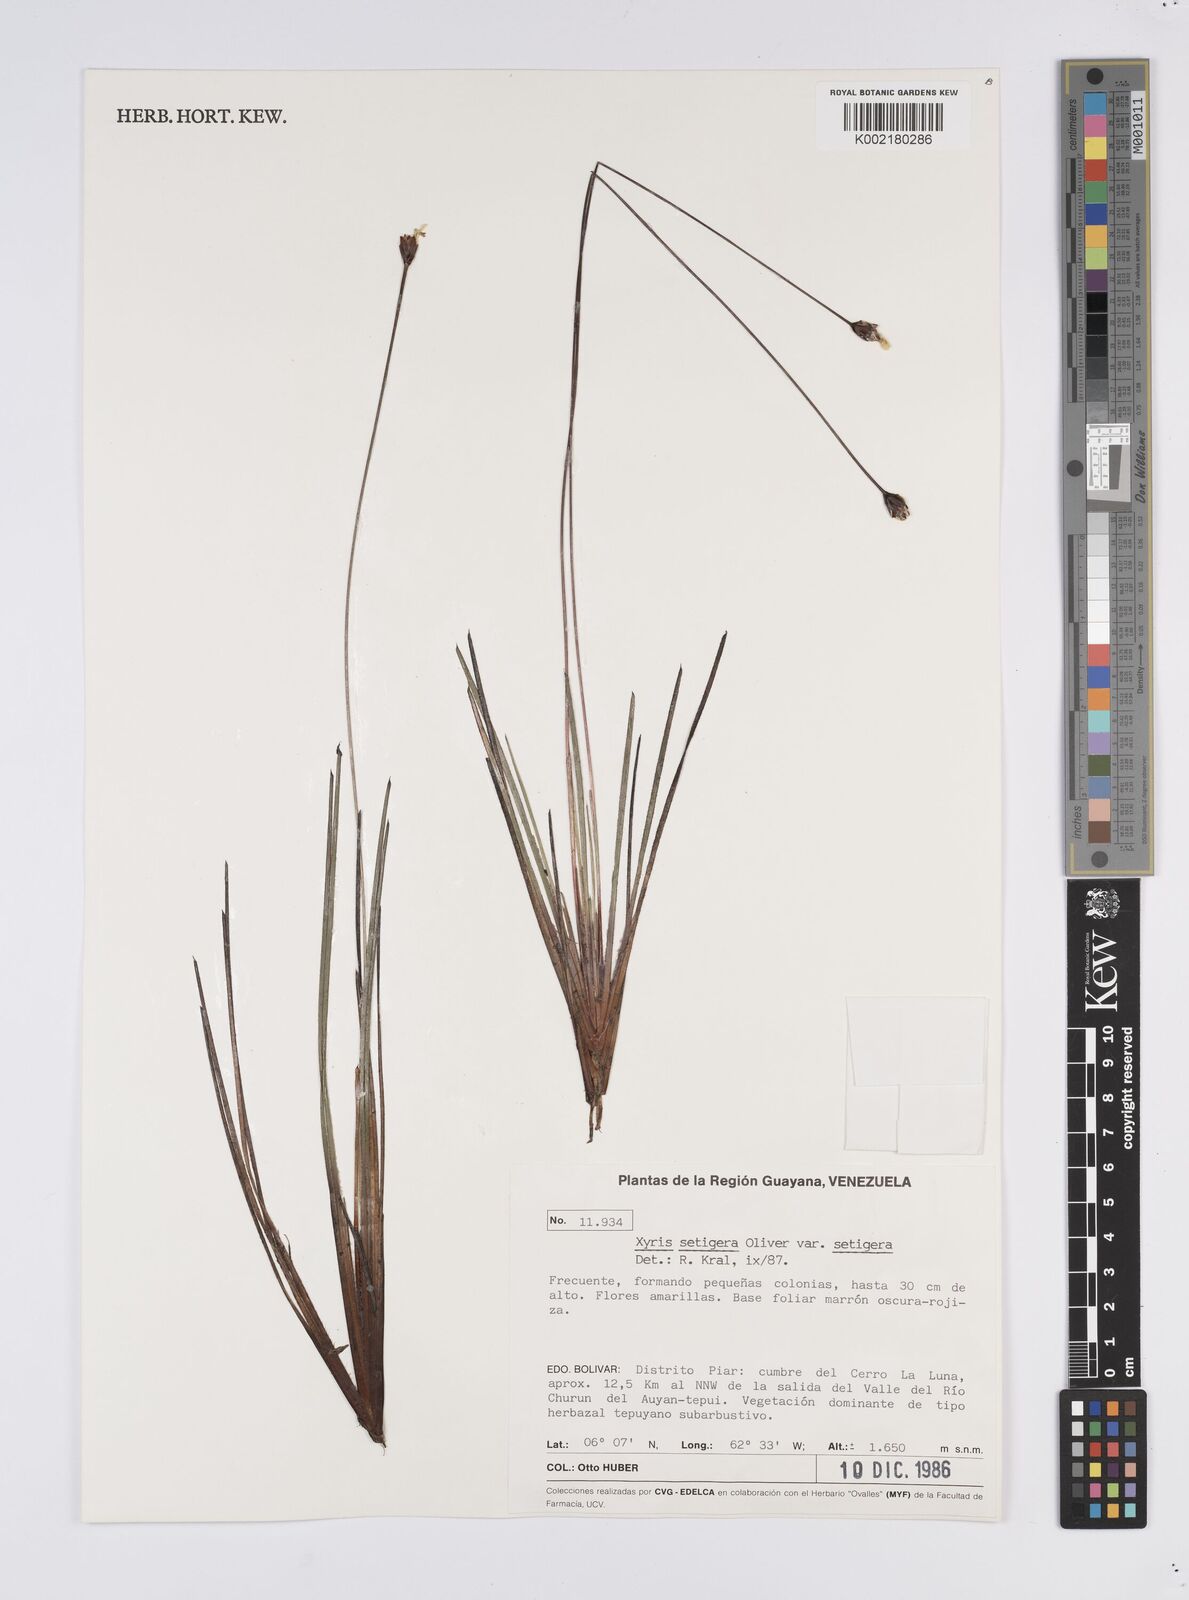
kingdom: Plantae
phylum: Tracheophyta
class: Liliopsida
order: Poales
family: Xyridaceae
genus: Xyris
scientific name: Xyris setigera
